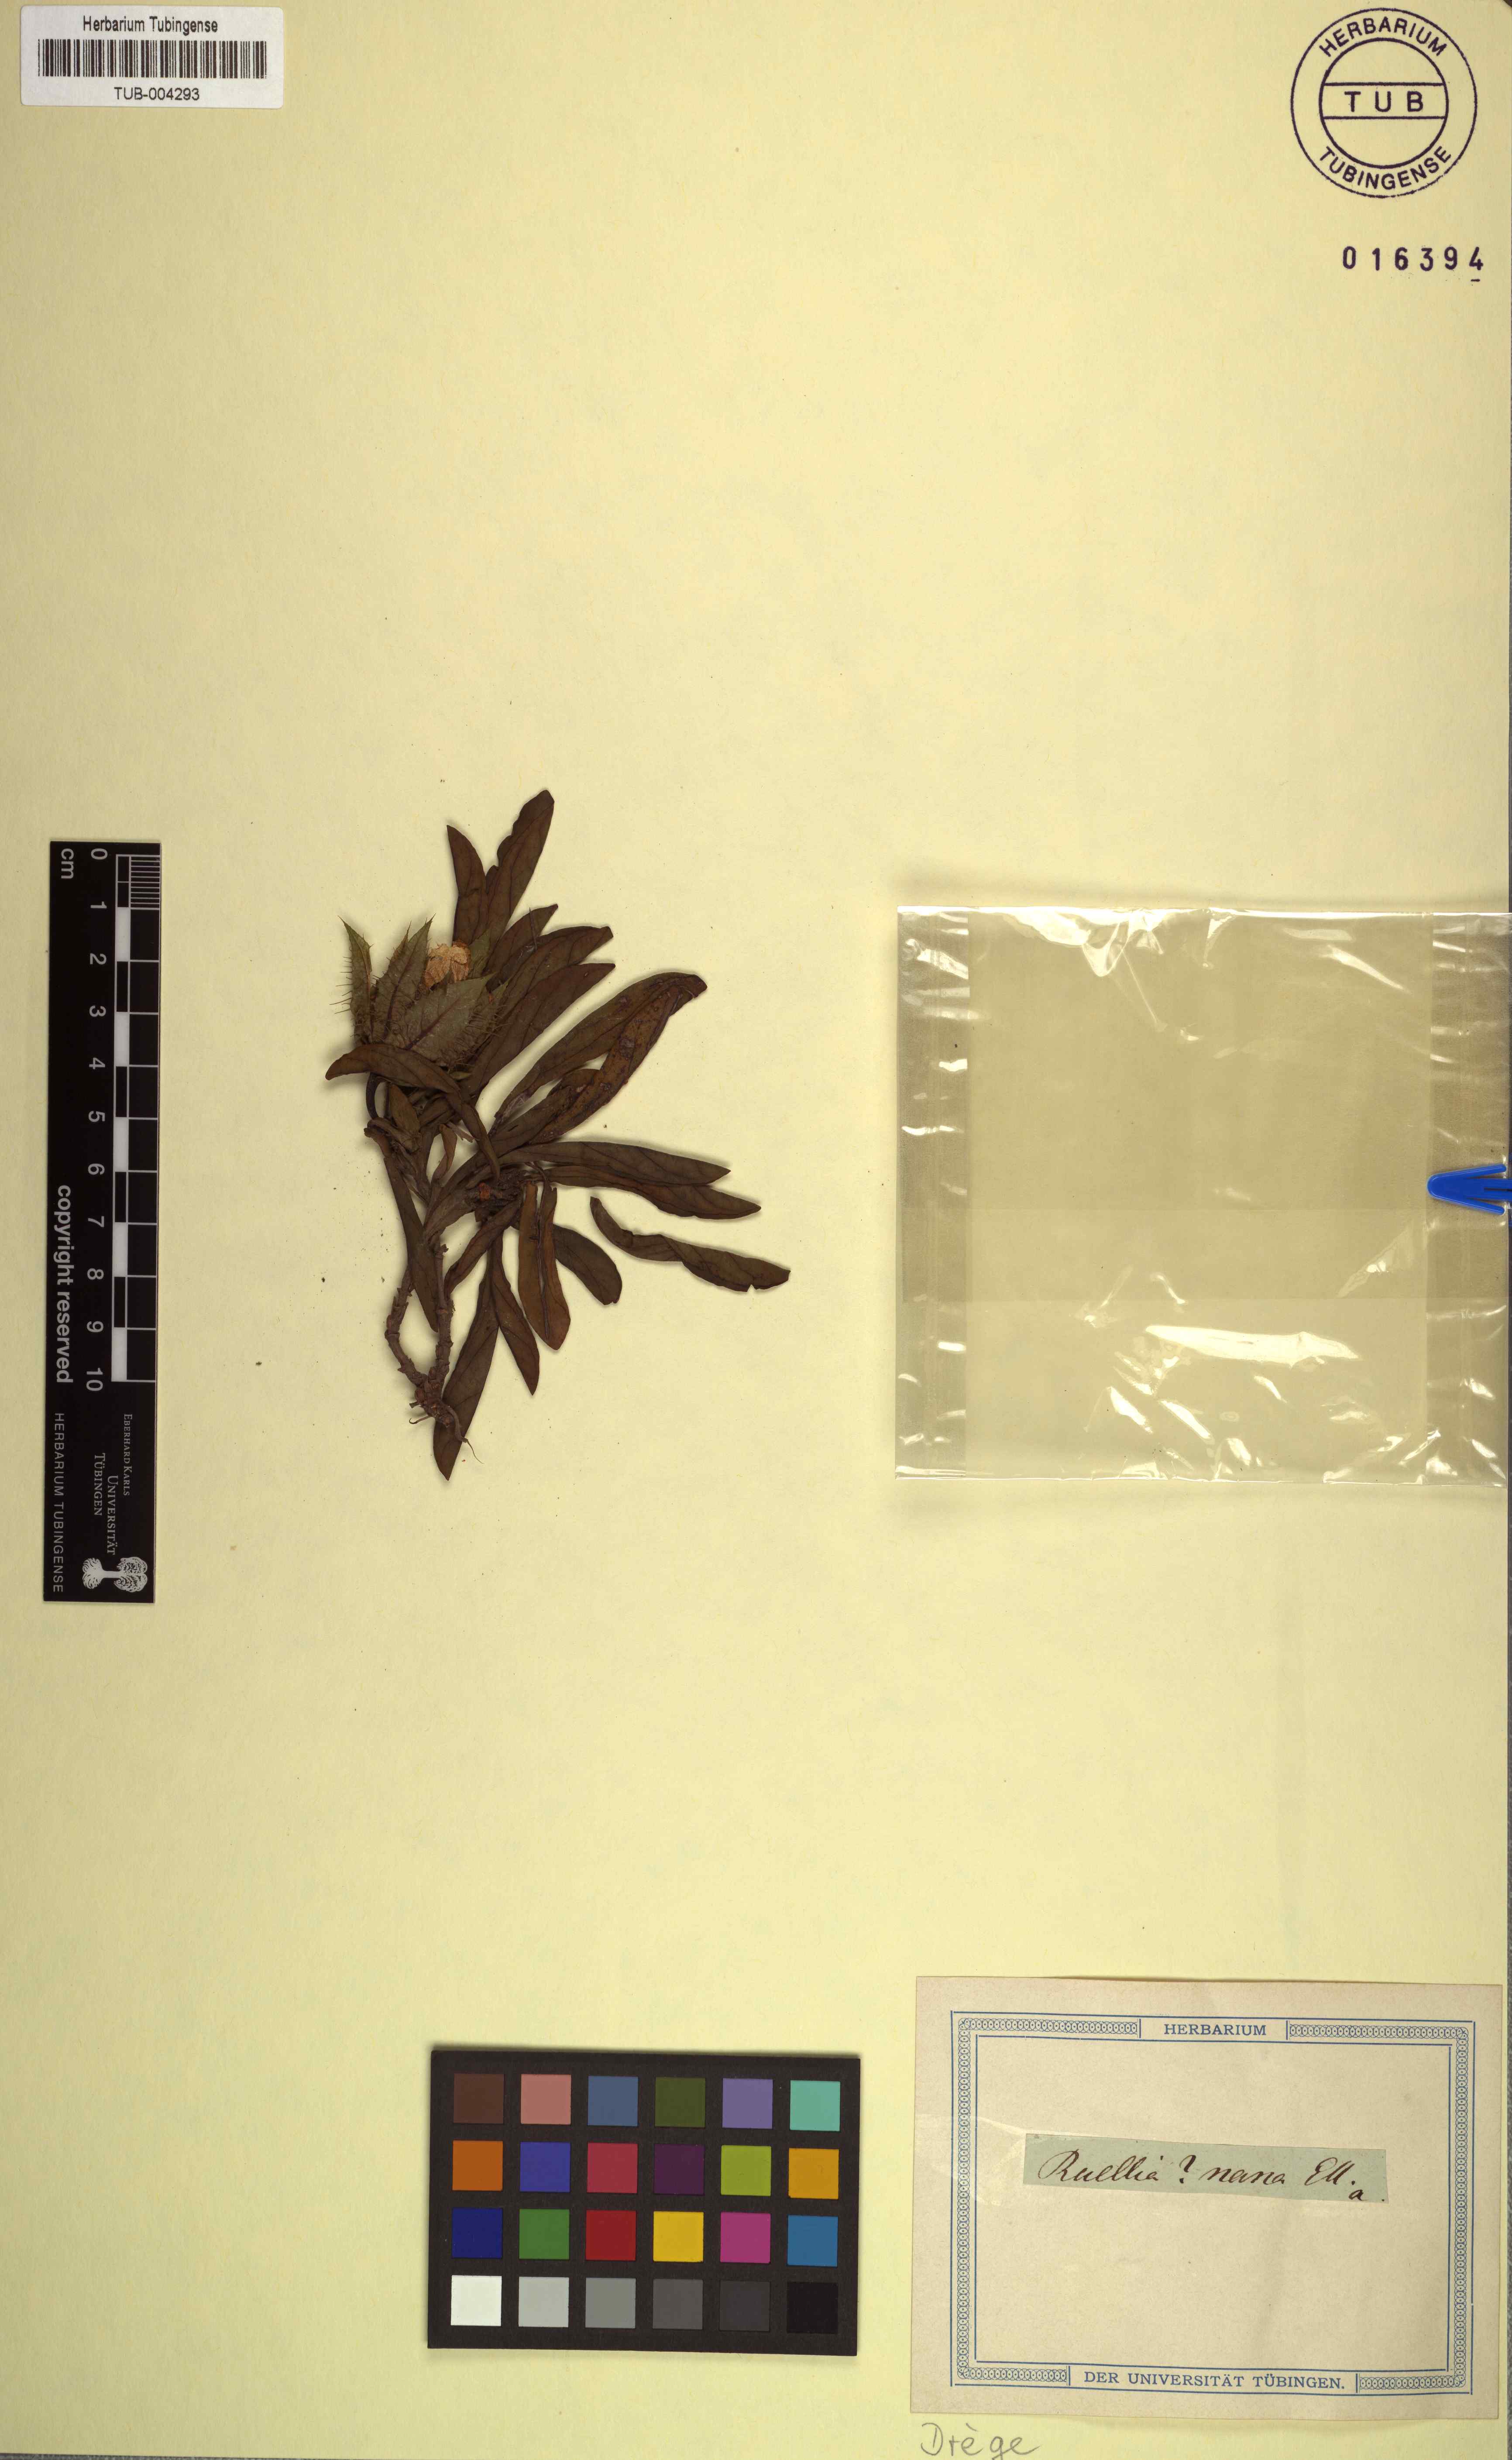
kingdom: Plantae
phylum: Tracheophyta
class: Magnoliopsida
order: Lamiales
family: Acanthaceae
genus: Crabbea
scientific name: Crabbea nana
